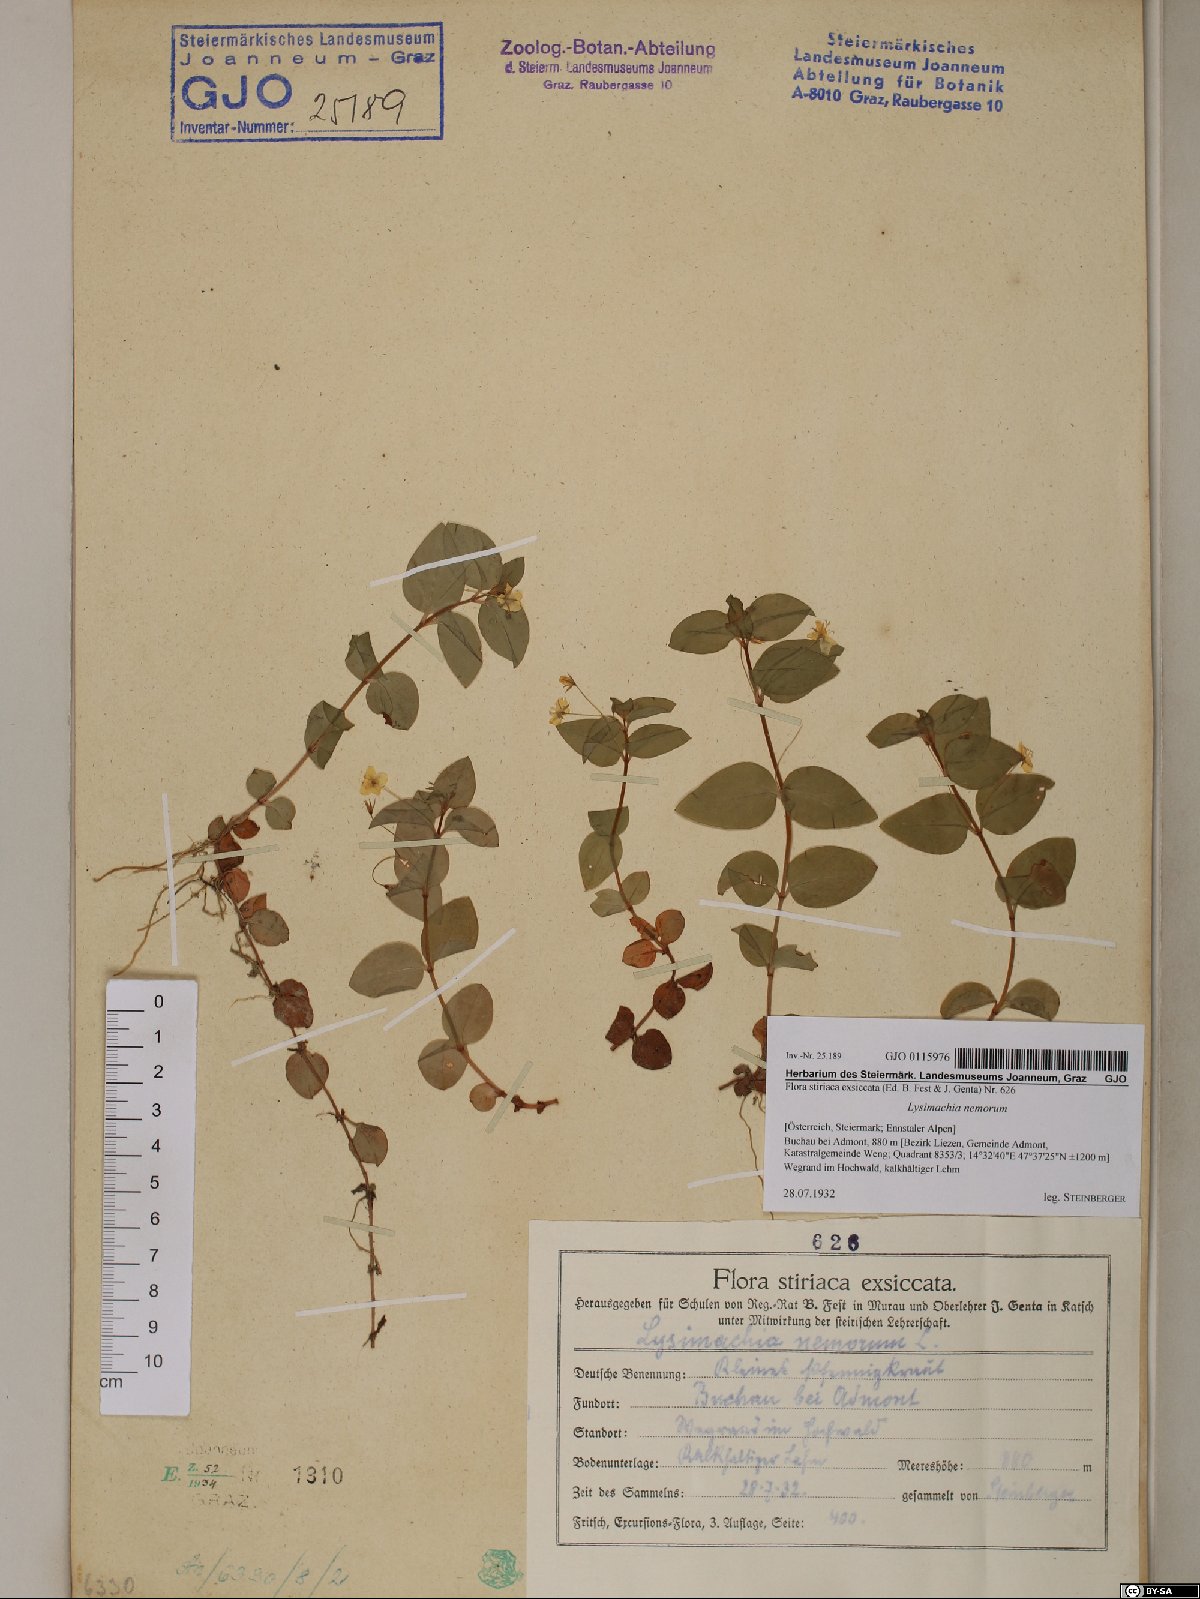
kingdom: Plantae
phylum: Tracheophyta
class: Magnoliopsida
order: Ericales
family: Primulaceae
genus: Lysimachia
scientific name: Lysimachia nemorum
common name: Yellow pimpernel
